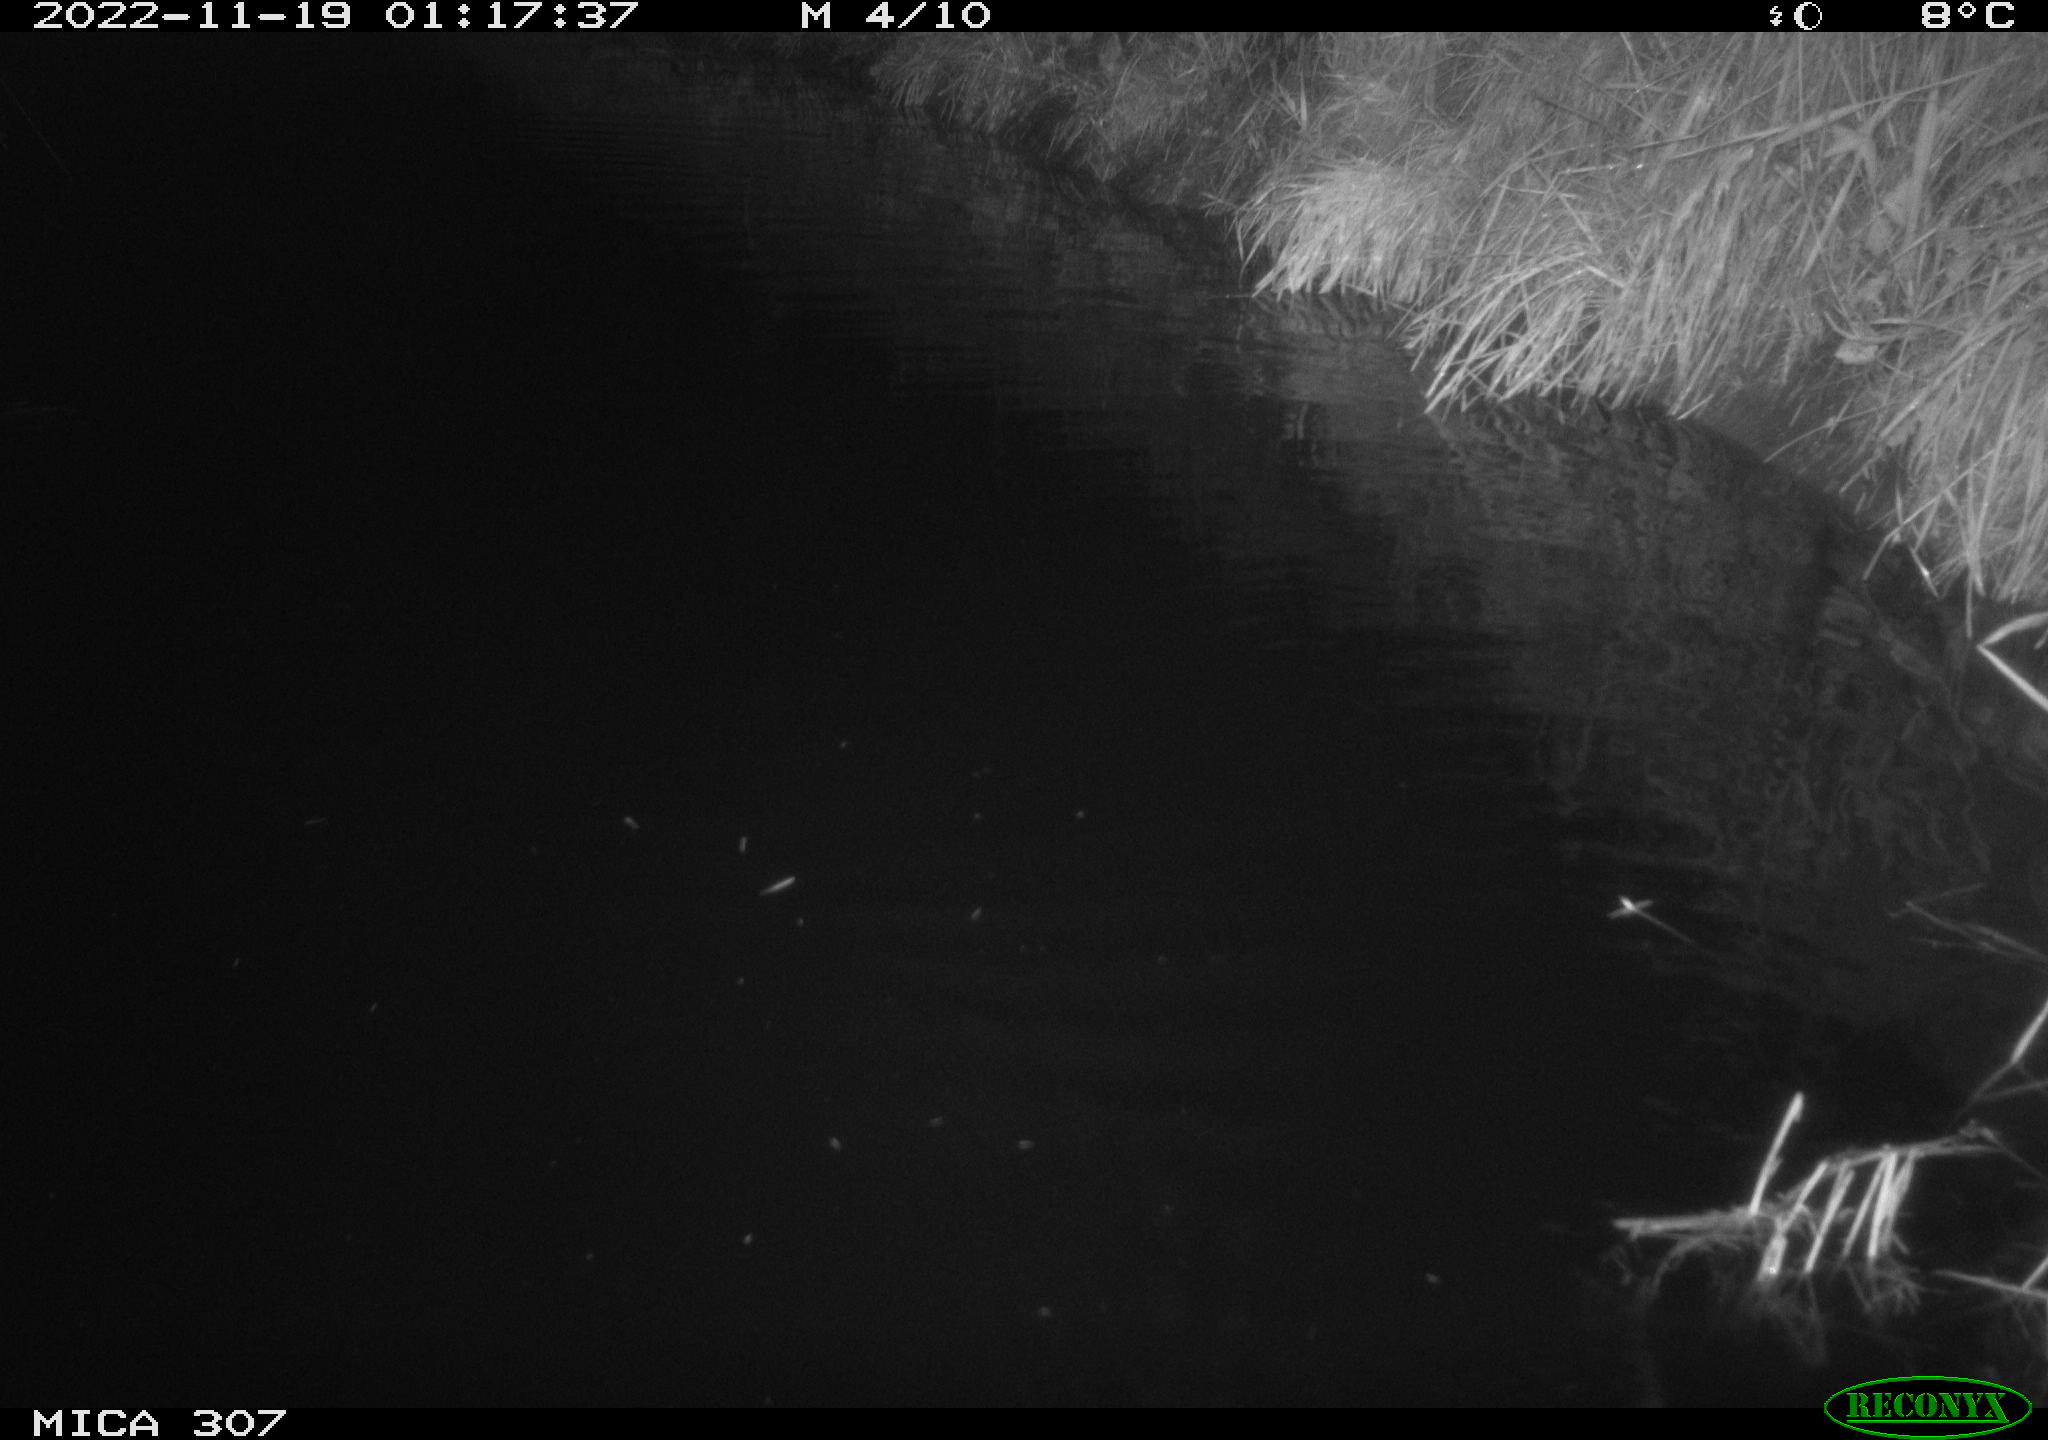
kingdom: Animalia
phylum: Chordata
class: Mammalia
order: Rodentia
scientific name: Rodentia
